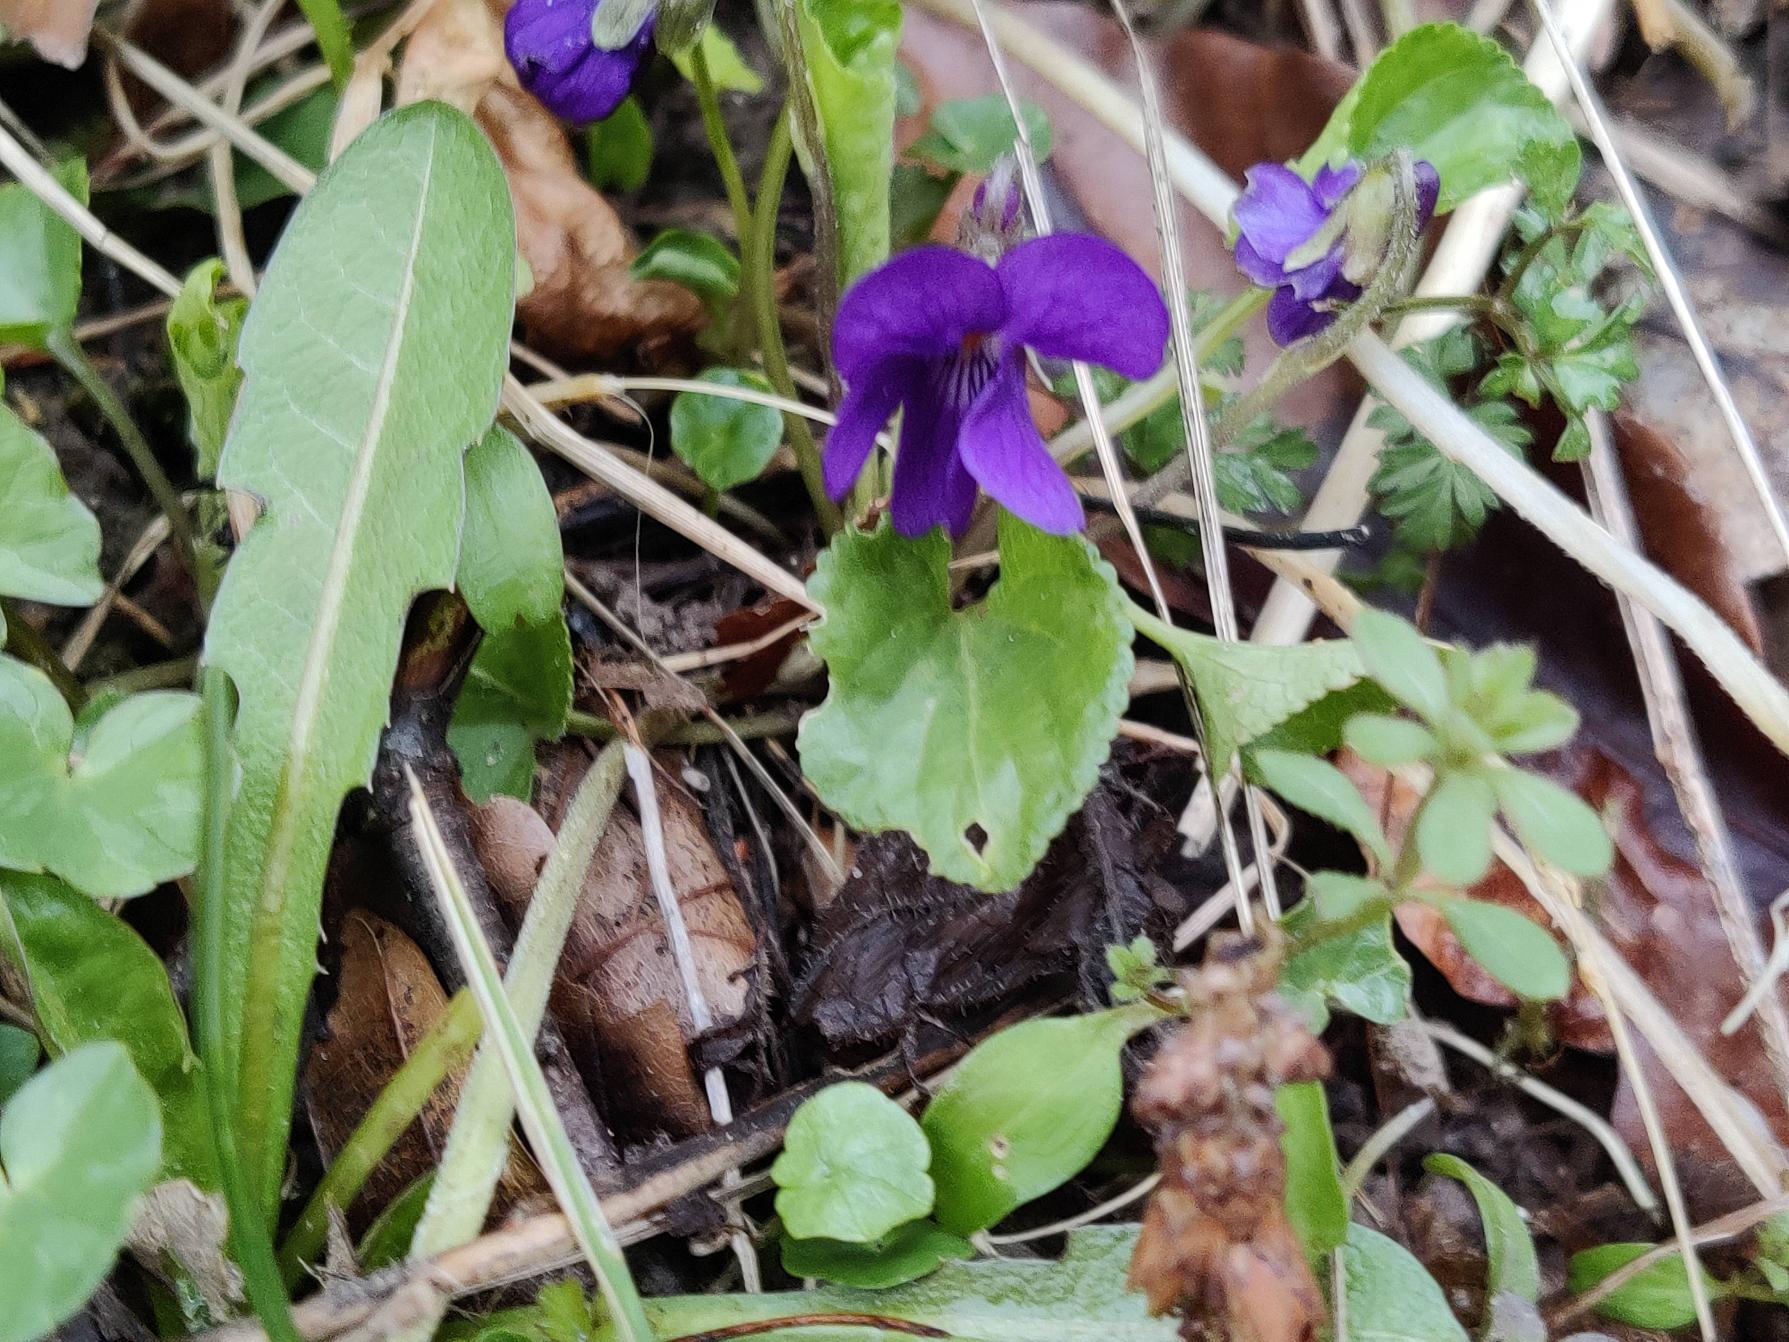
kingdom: Plantae
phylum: Tracheophyta
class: Magnoliopsida
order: Malpighiales
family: Violaceae
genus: Viola
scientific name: Viola odorata
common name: Marts-viol
